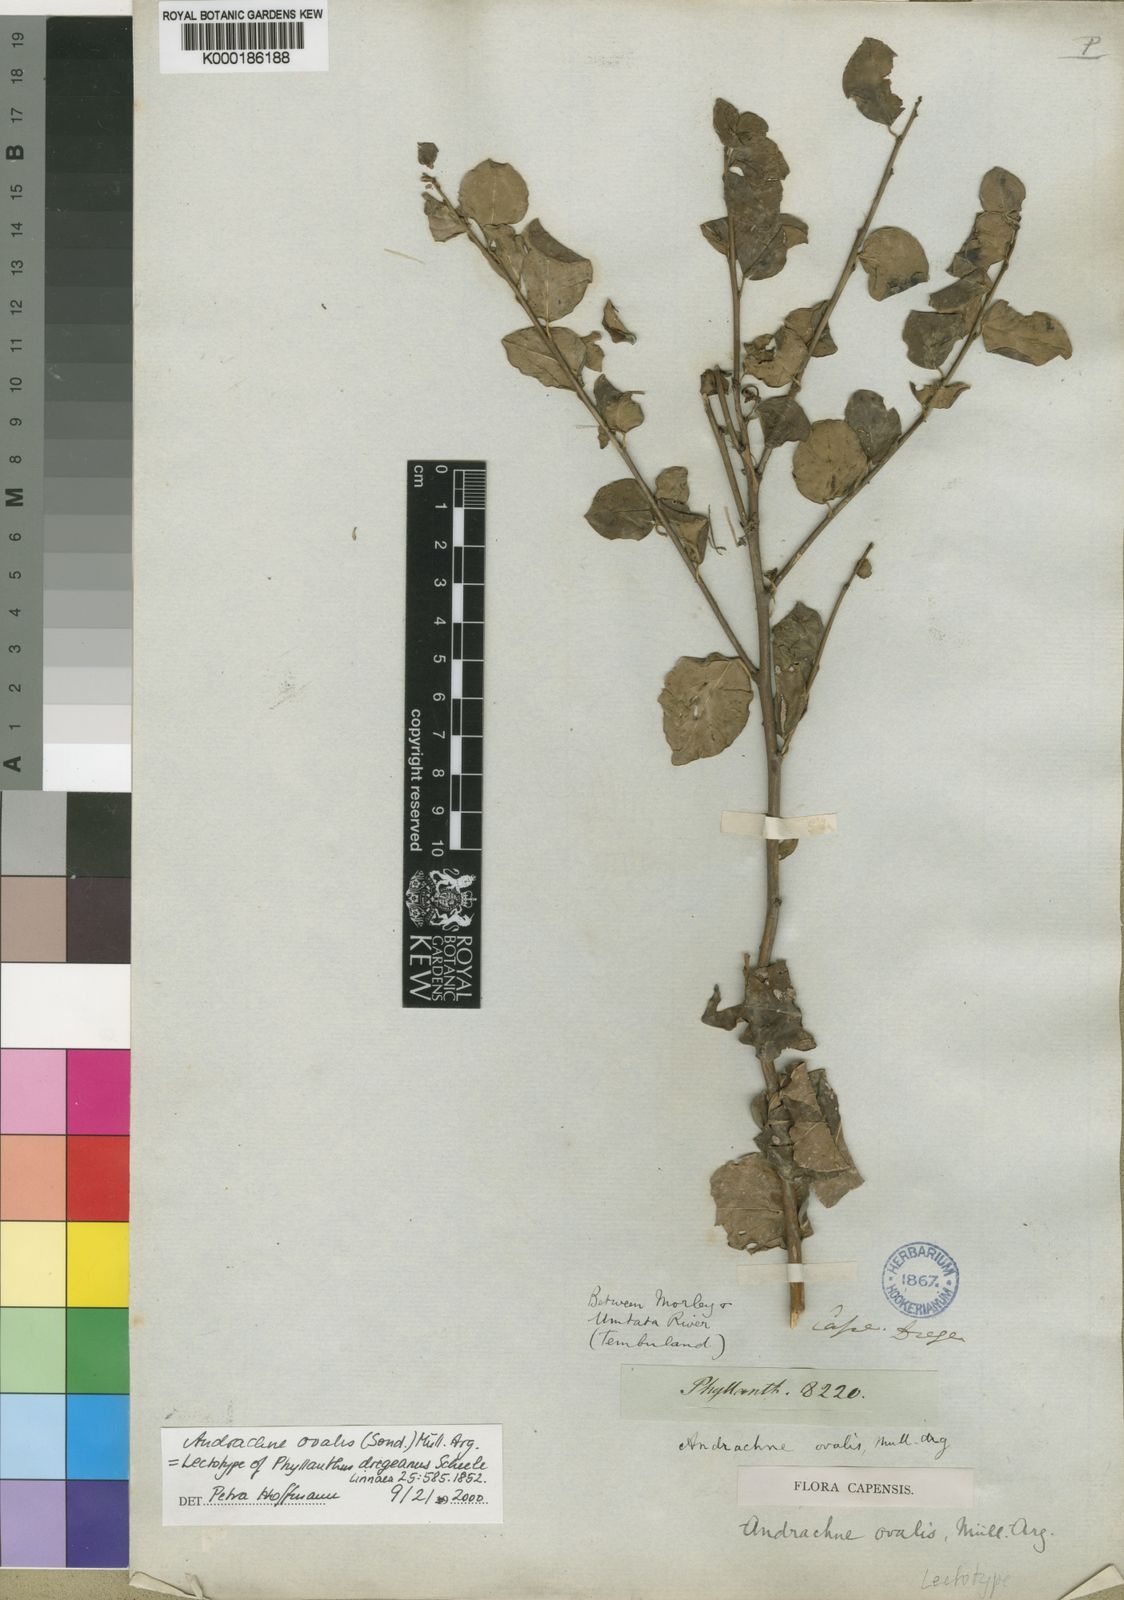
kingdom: Plantae
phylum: Tracheophyta
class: Magnoliopsida
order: Malpighiales
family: Phyllanthaceae
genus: Pseudophyllanthus
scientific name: Pseudophyllanthus ovalis
